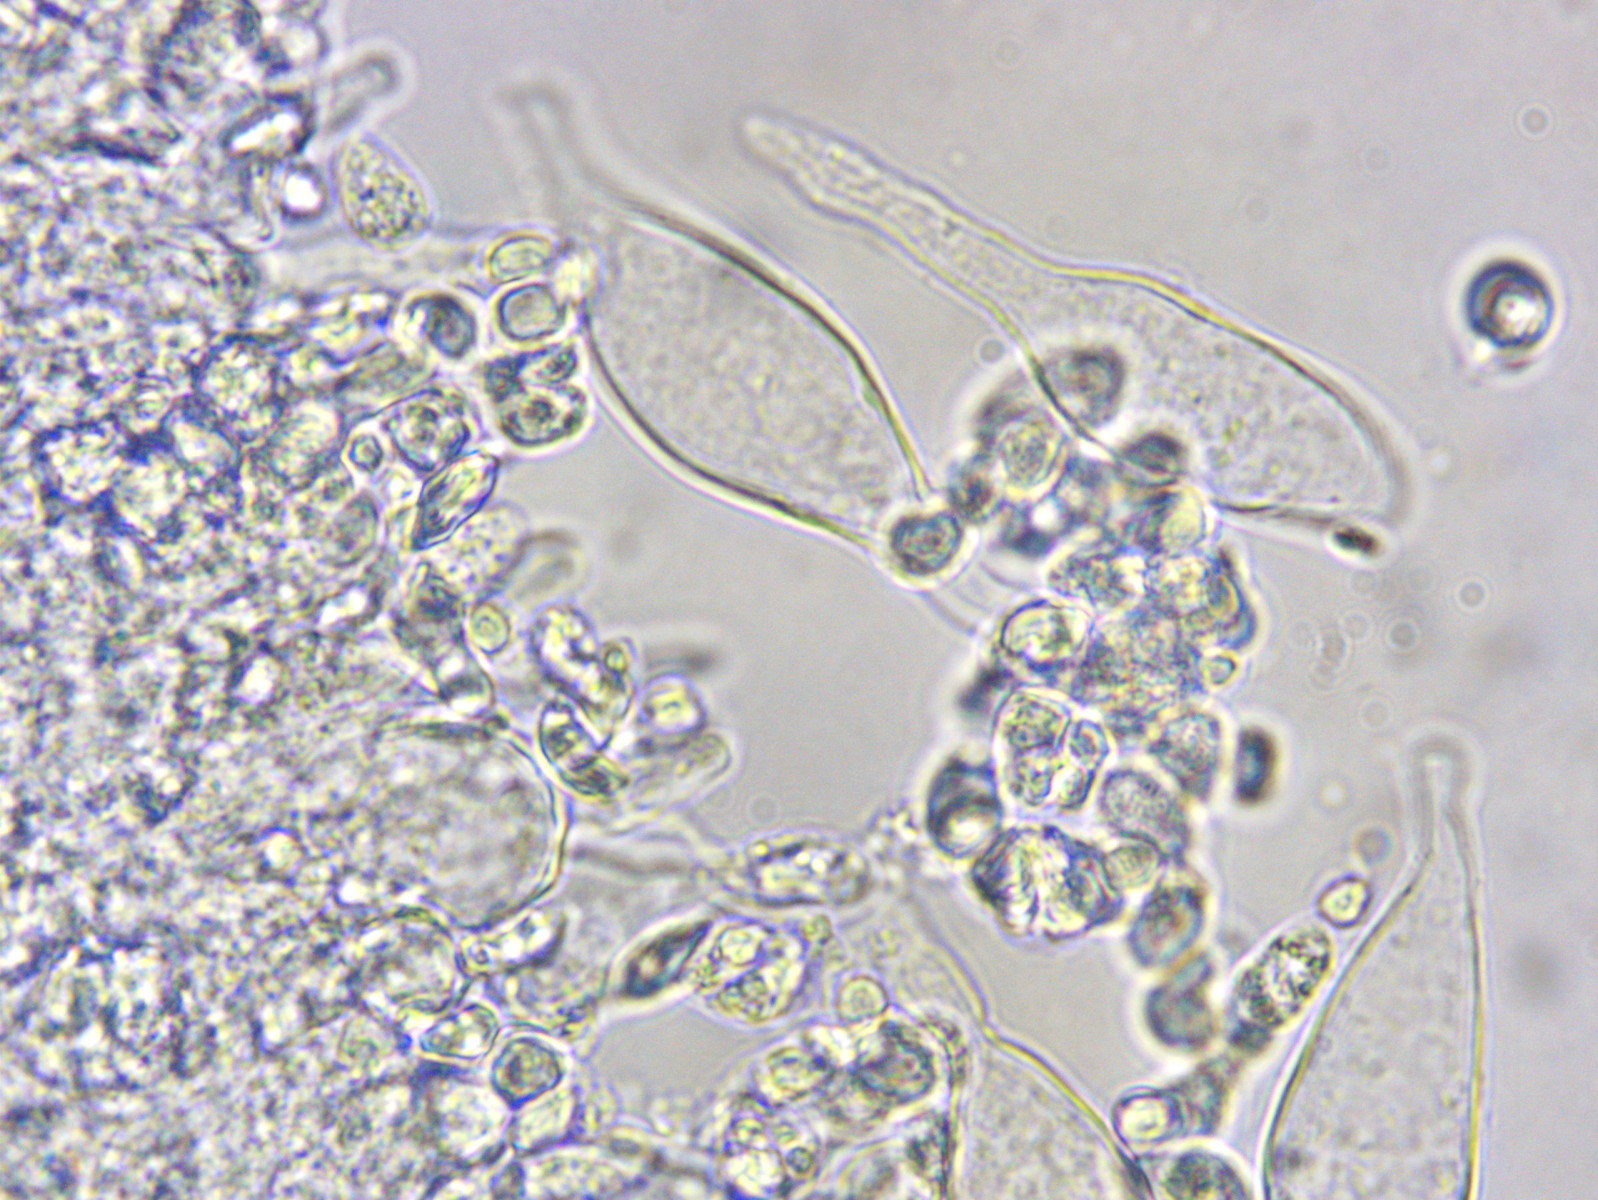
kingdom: Fungi
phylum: Basidiomycota
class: Agaricomycetes
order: Agaricales
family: Mycenaceae
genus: Mycena
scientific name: Mycena aetites
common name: plæne-huesvamp
